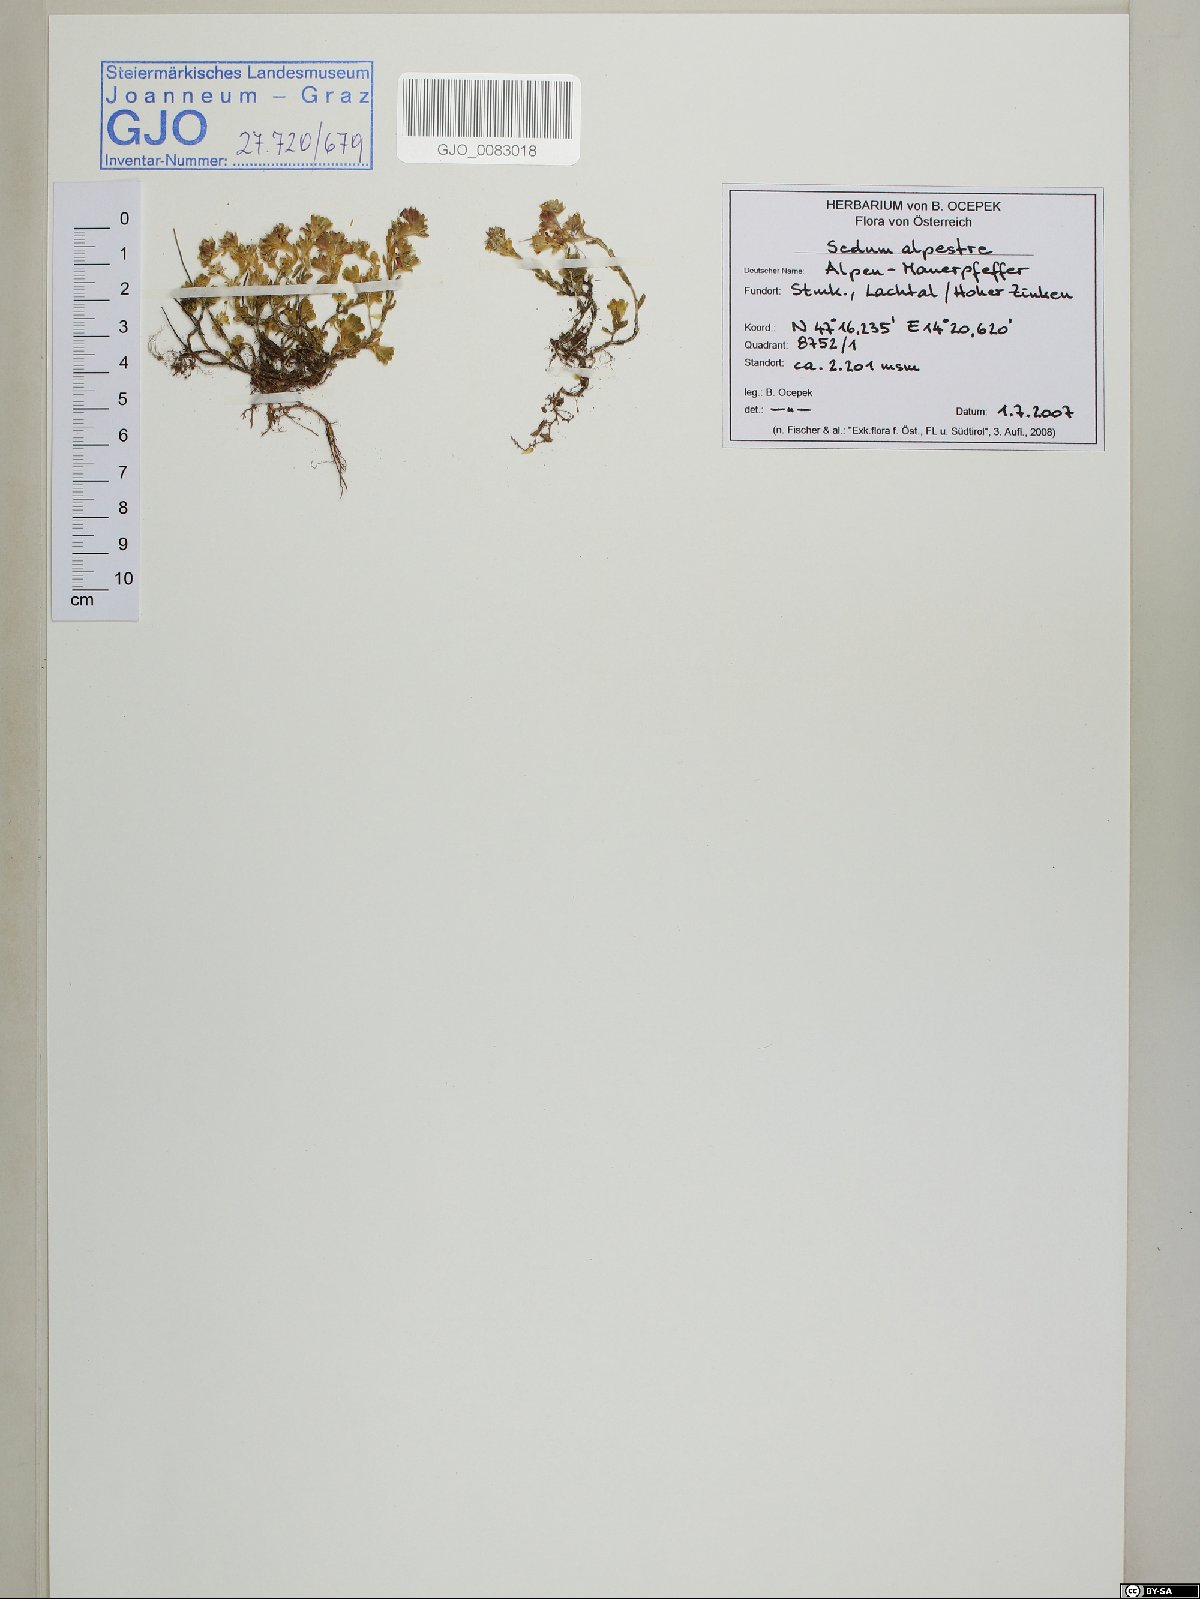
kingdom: Plantae
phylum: Tracheophyta
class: Magnoliopsida
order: Saxifragales
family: Crassulaceae
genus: Sedum
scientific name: Sedum alpestre
